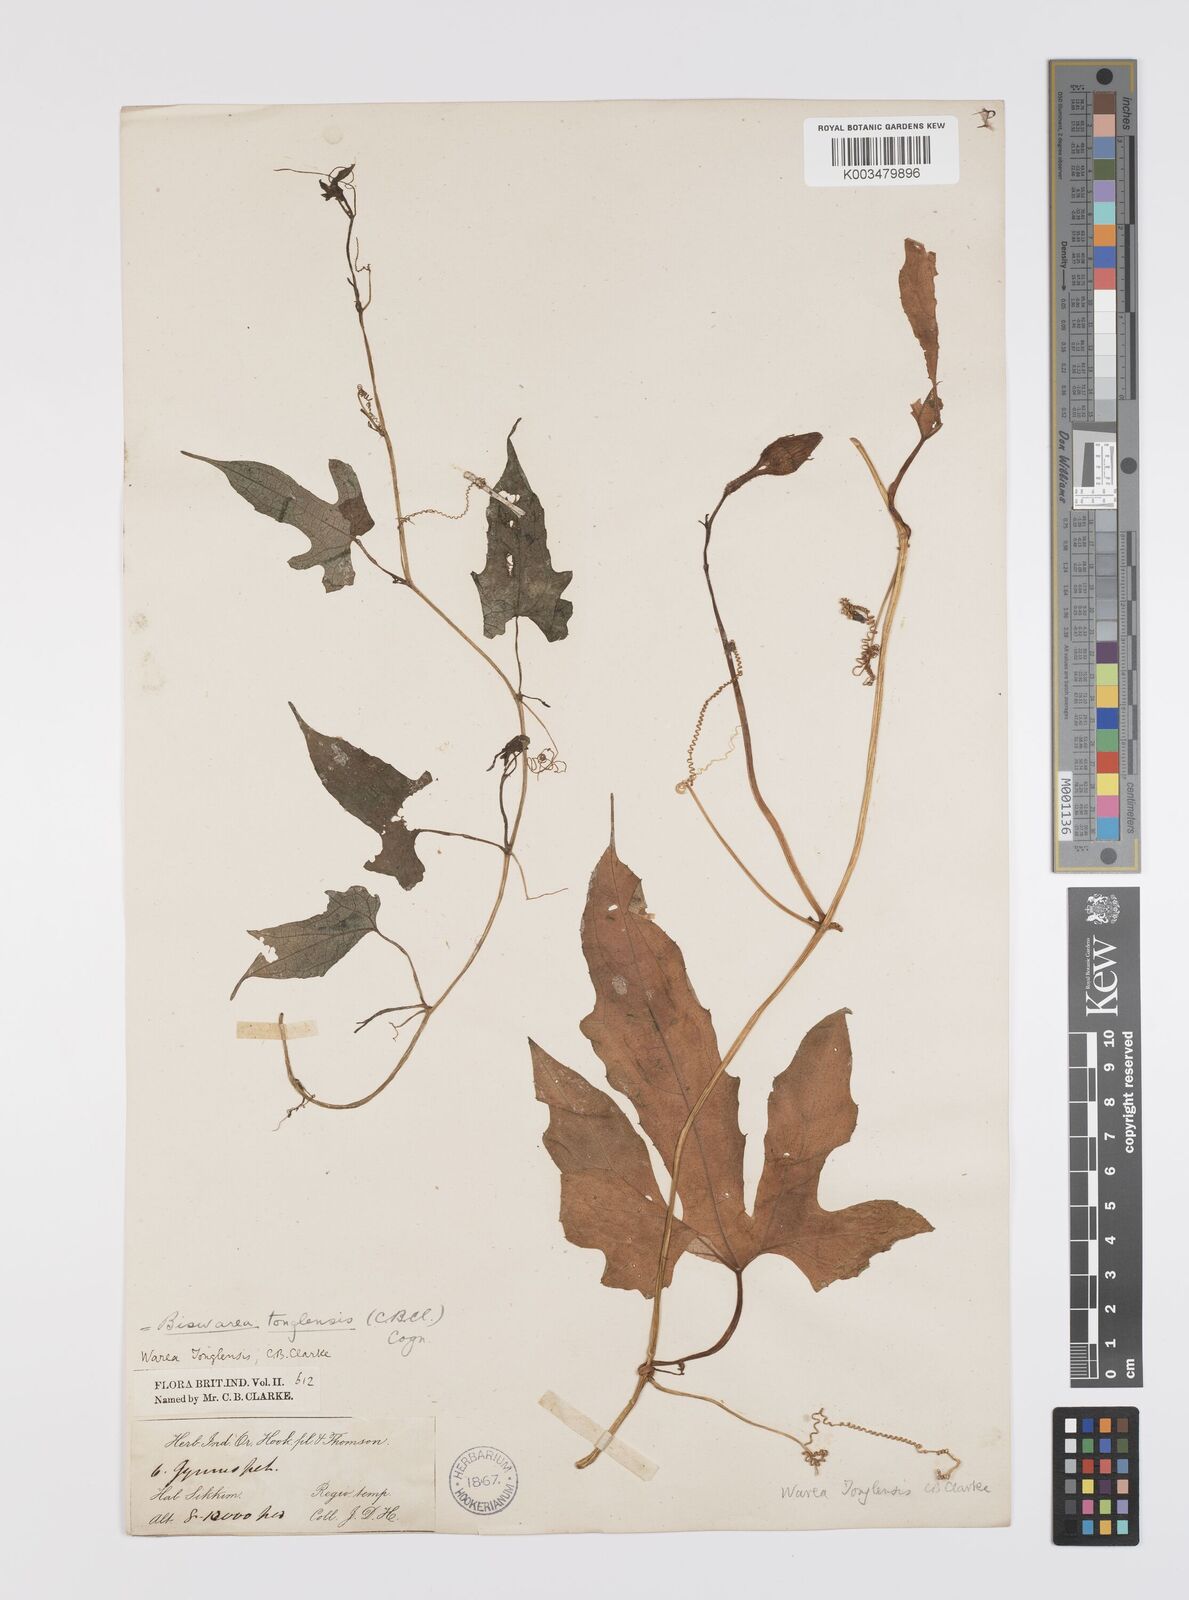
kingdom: Plantae
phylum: Tracheophyta
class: Magnoliopsida
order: Cucurbitales
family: Cucurbitaceae
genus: Benincasa
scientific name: Benincasa
